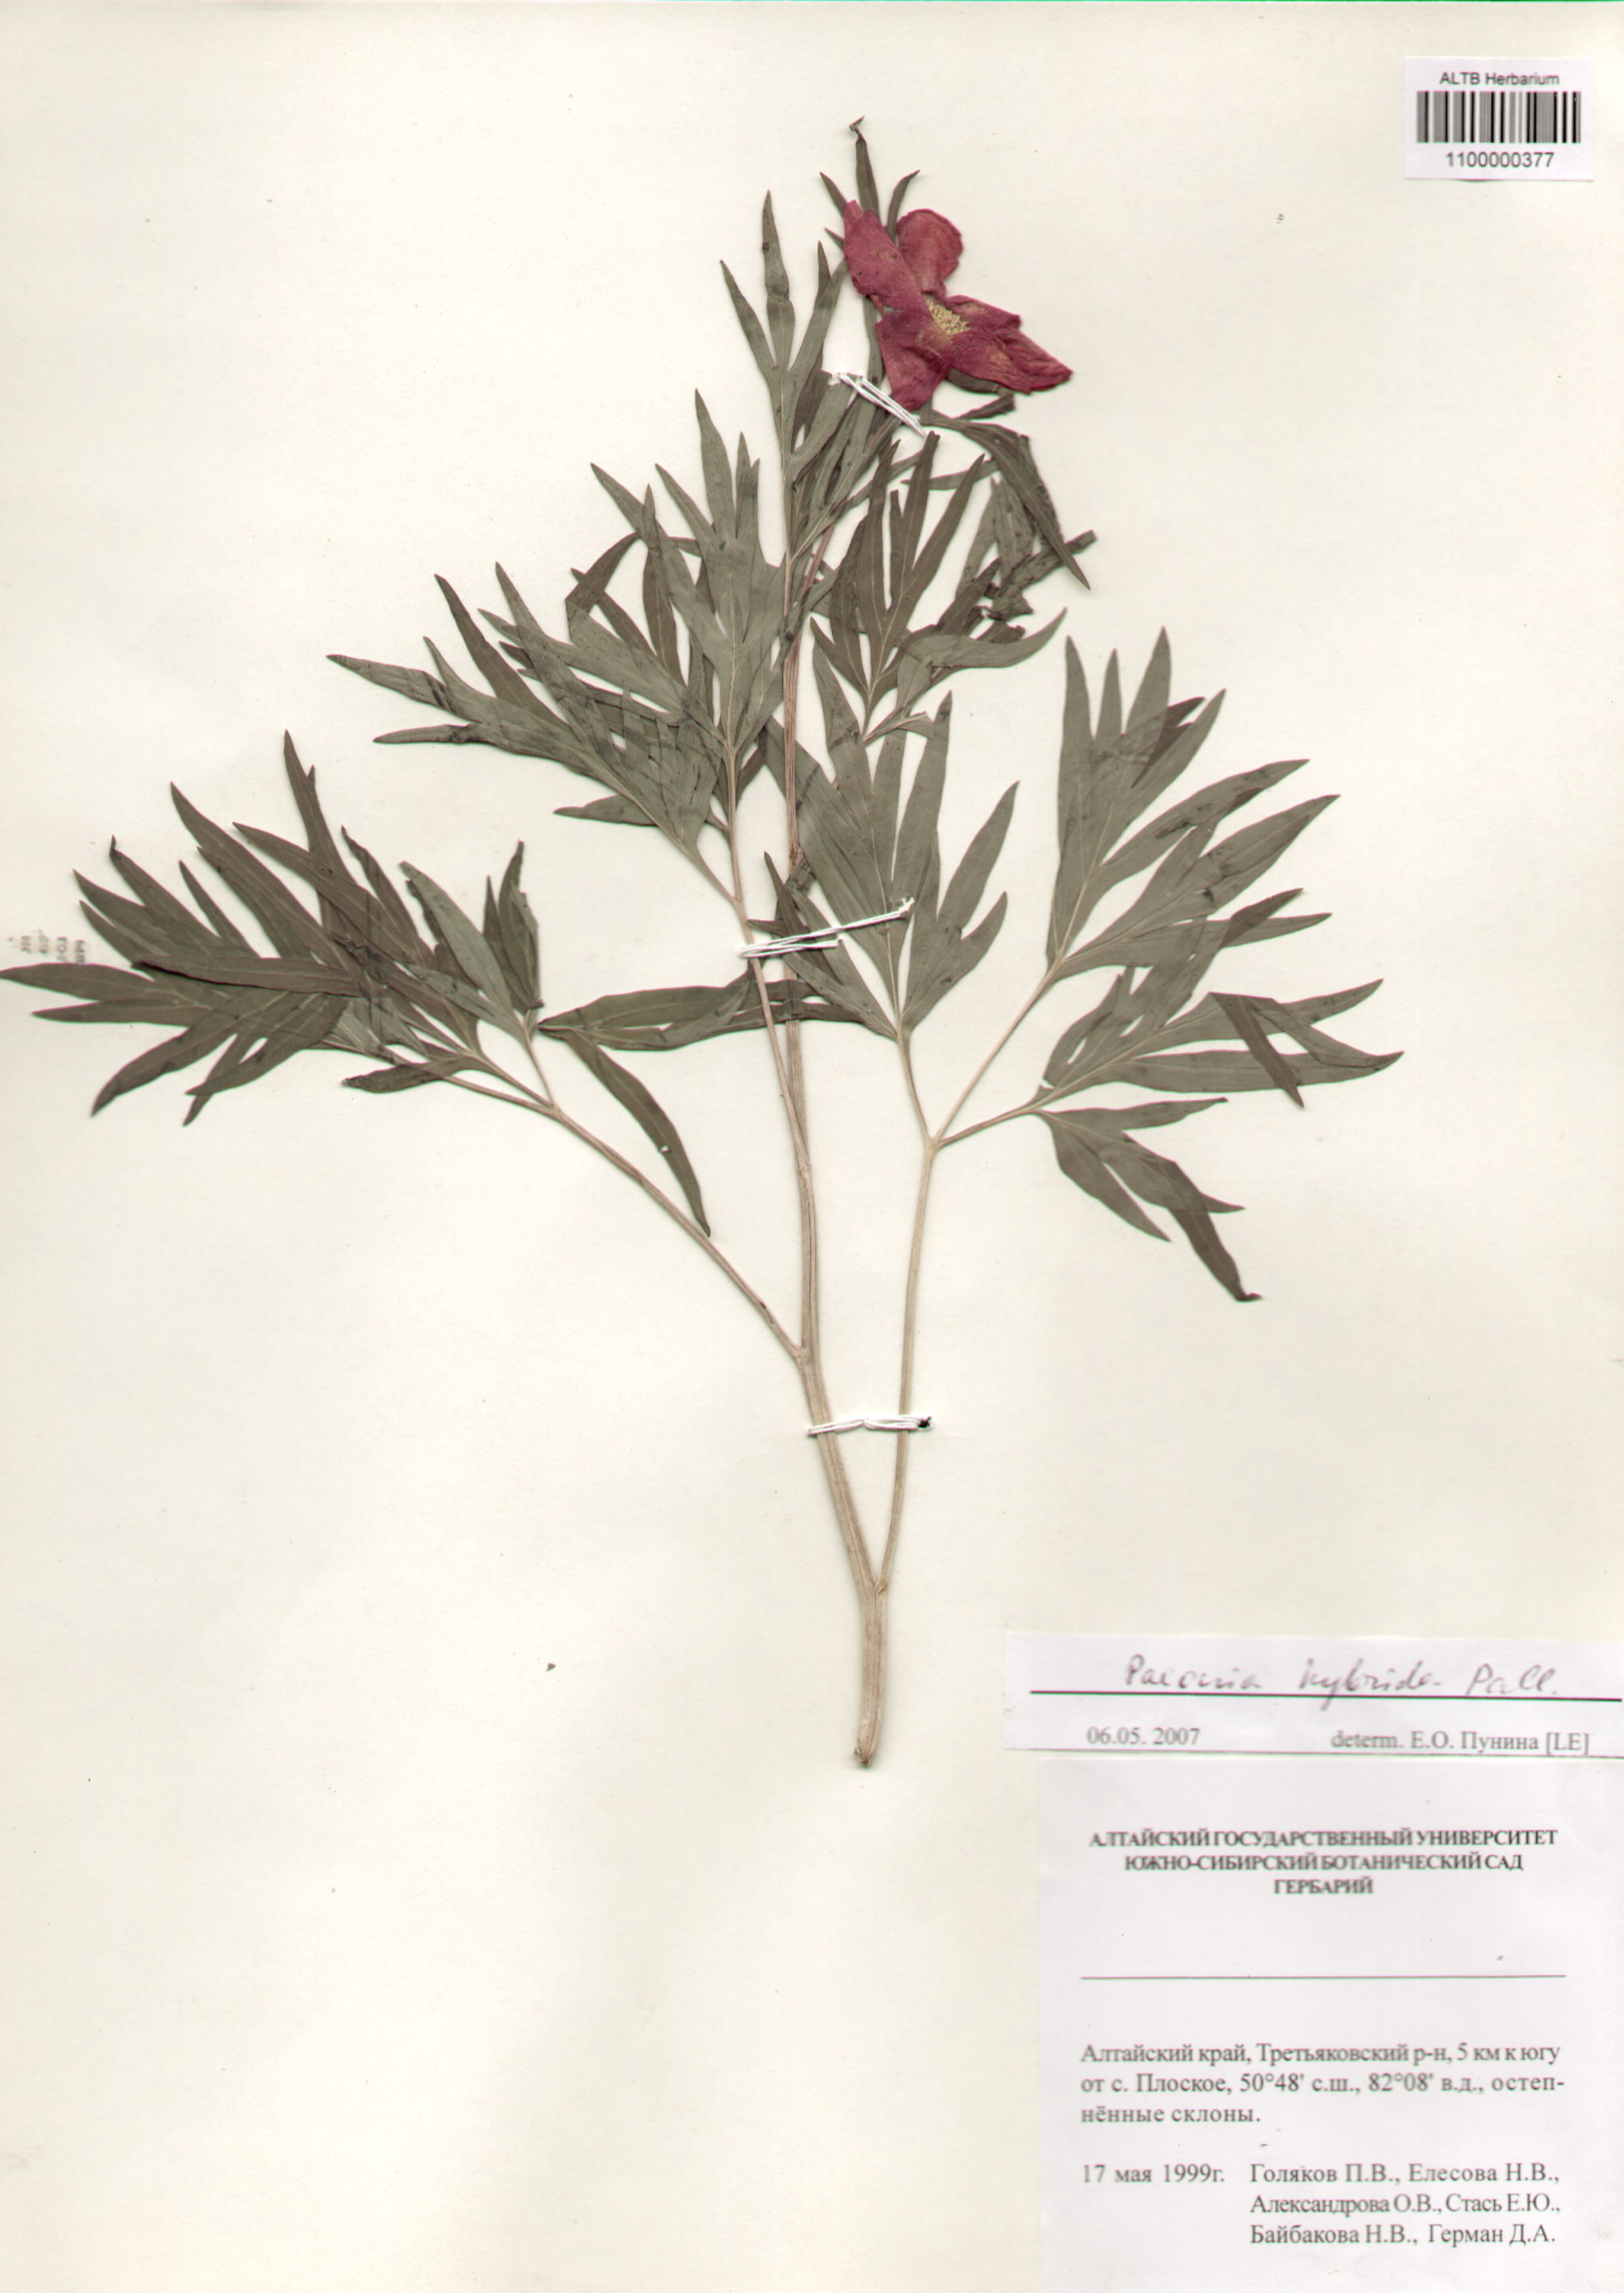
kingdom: Plantae
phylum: Tracheophyta
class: Magnoliopsida
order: Saxifragales
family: Paeoniaceae
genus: Paeonia
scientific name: Paeonia
